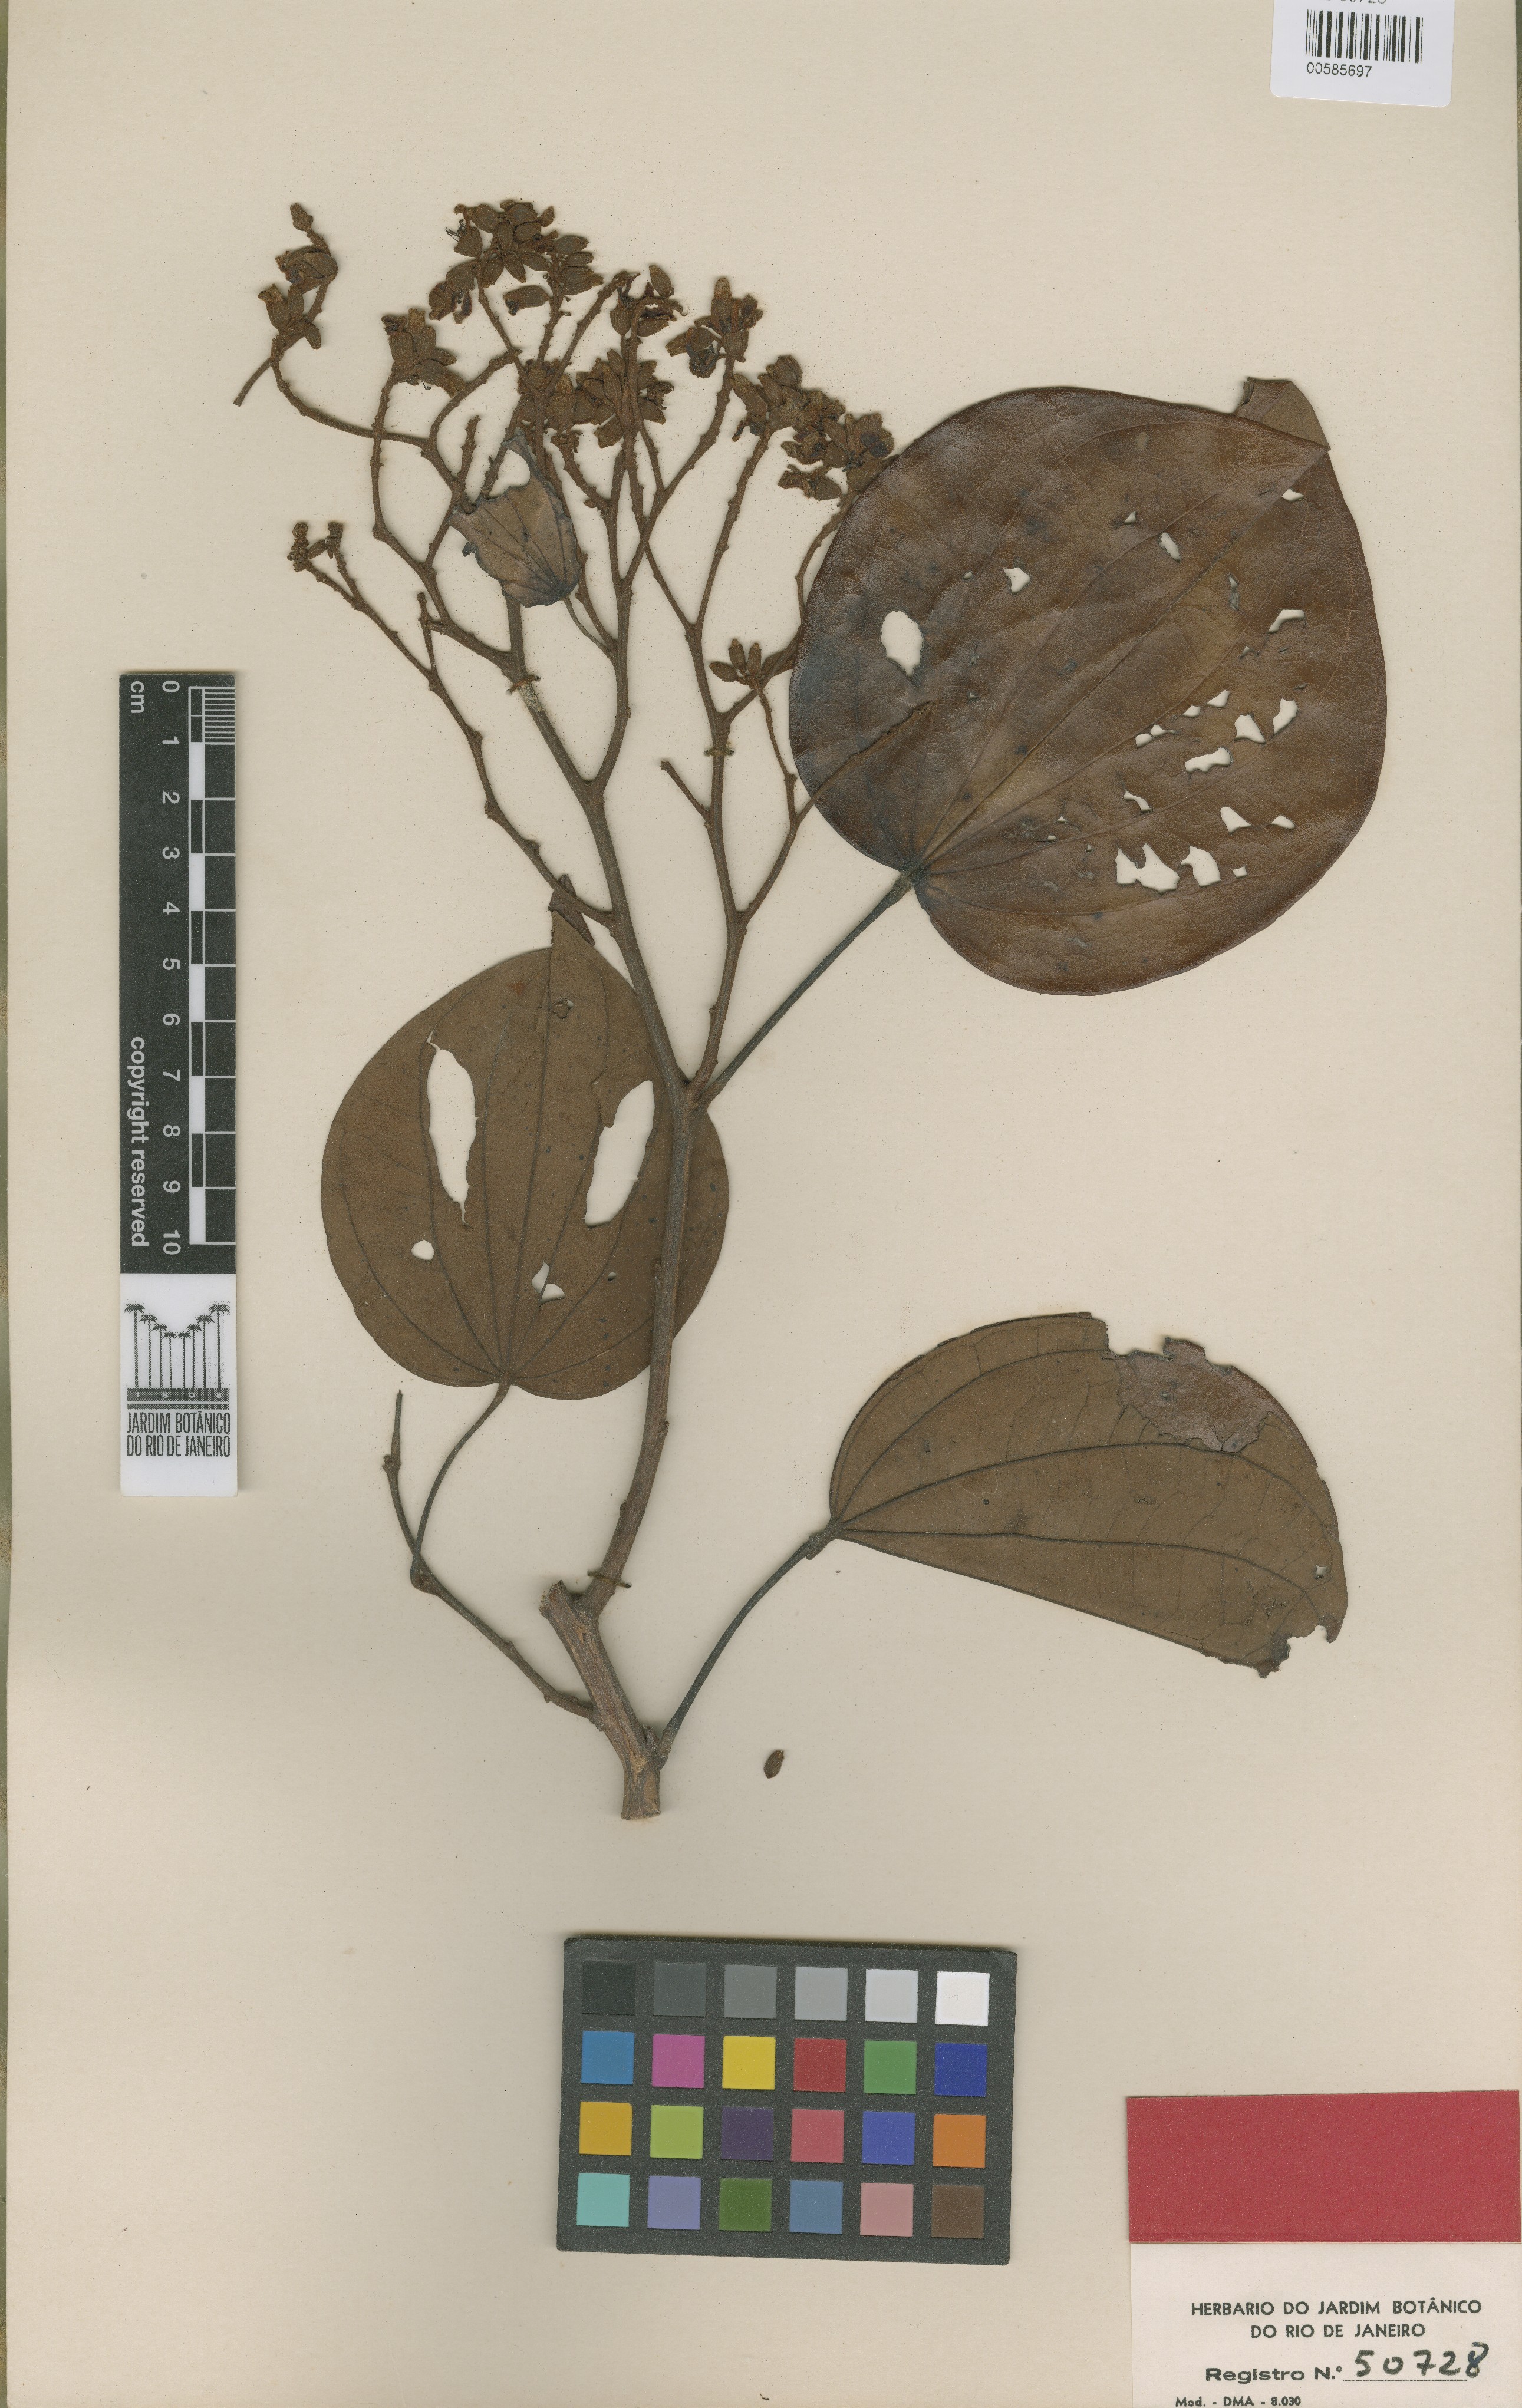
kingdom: Plantae
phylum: Tracheophyta
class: Magnoliopsida
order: Fabales
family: Fabaceae
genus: Schnella
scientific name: Schnella altiscandens
